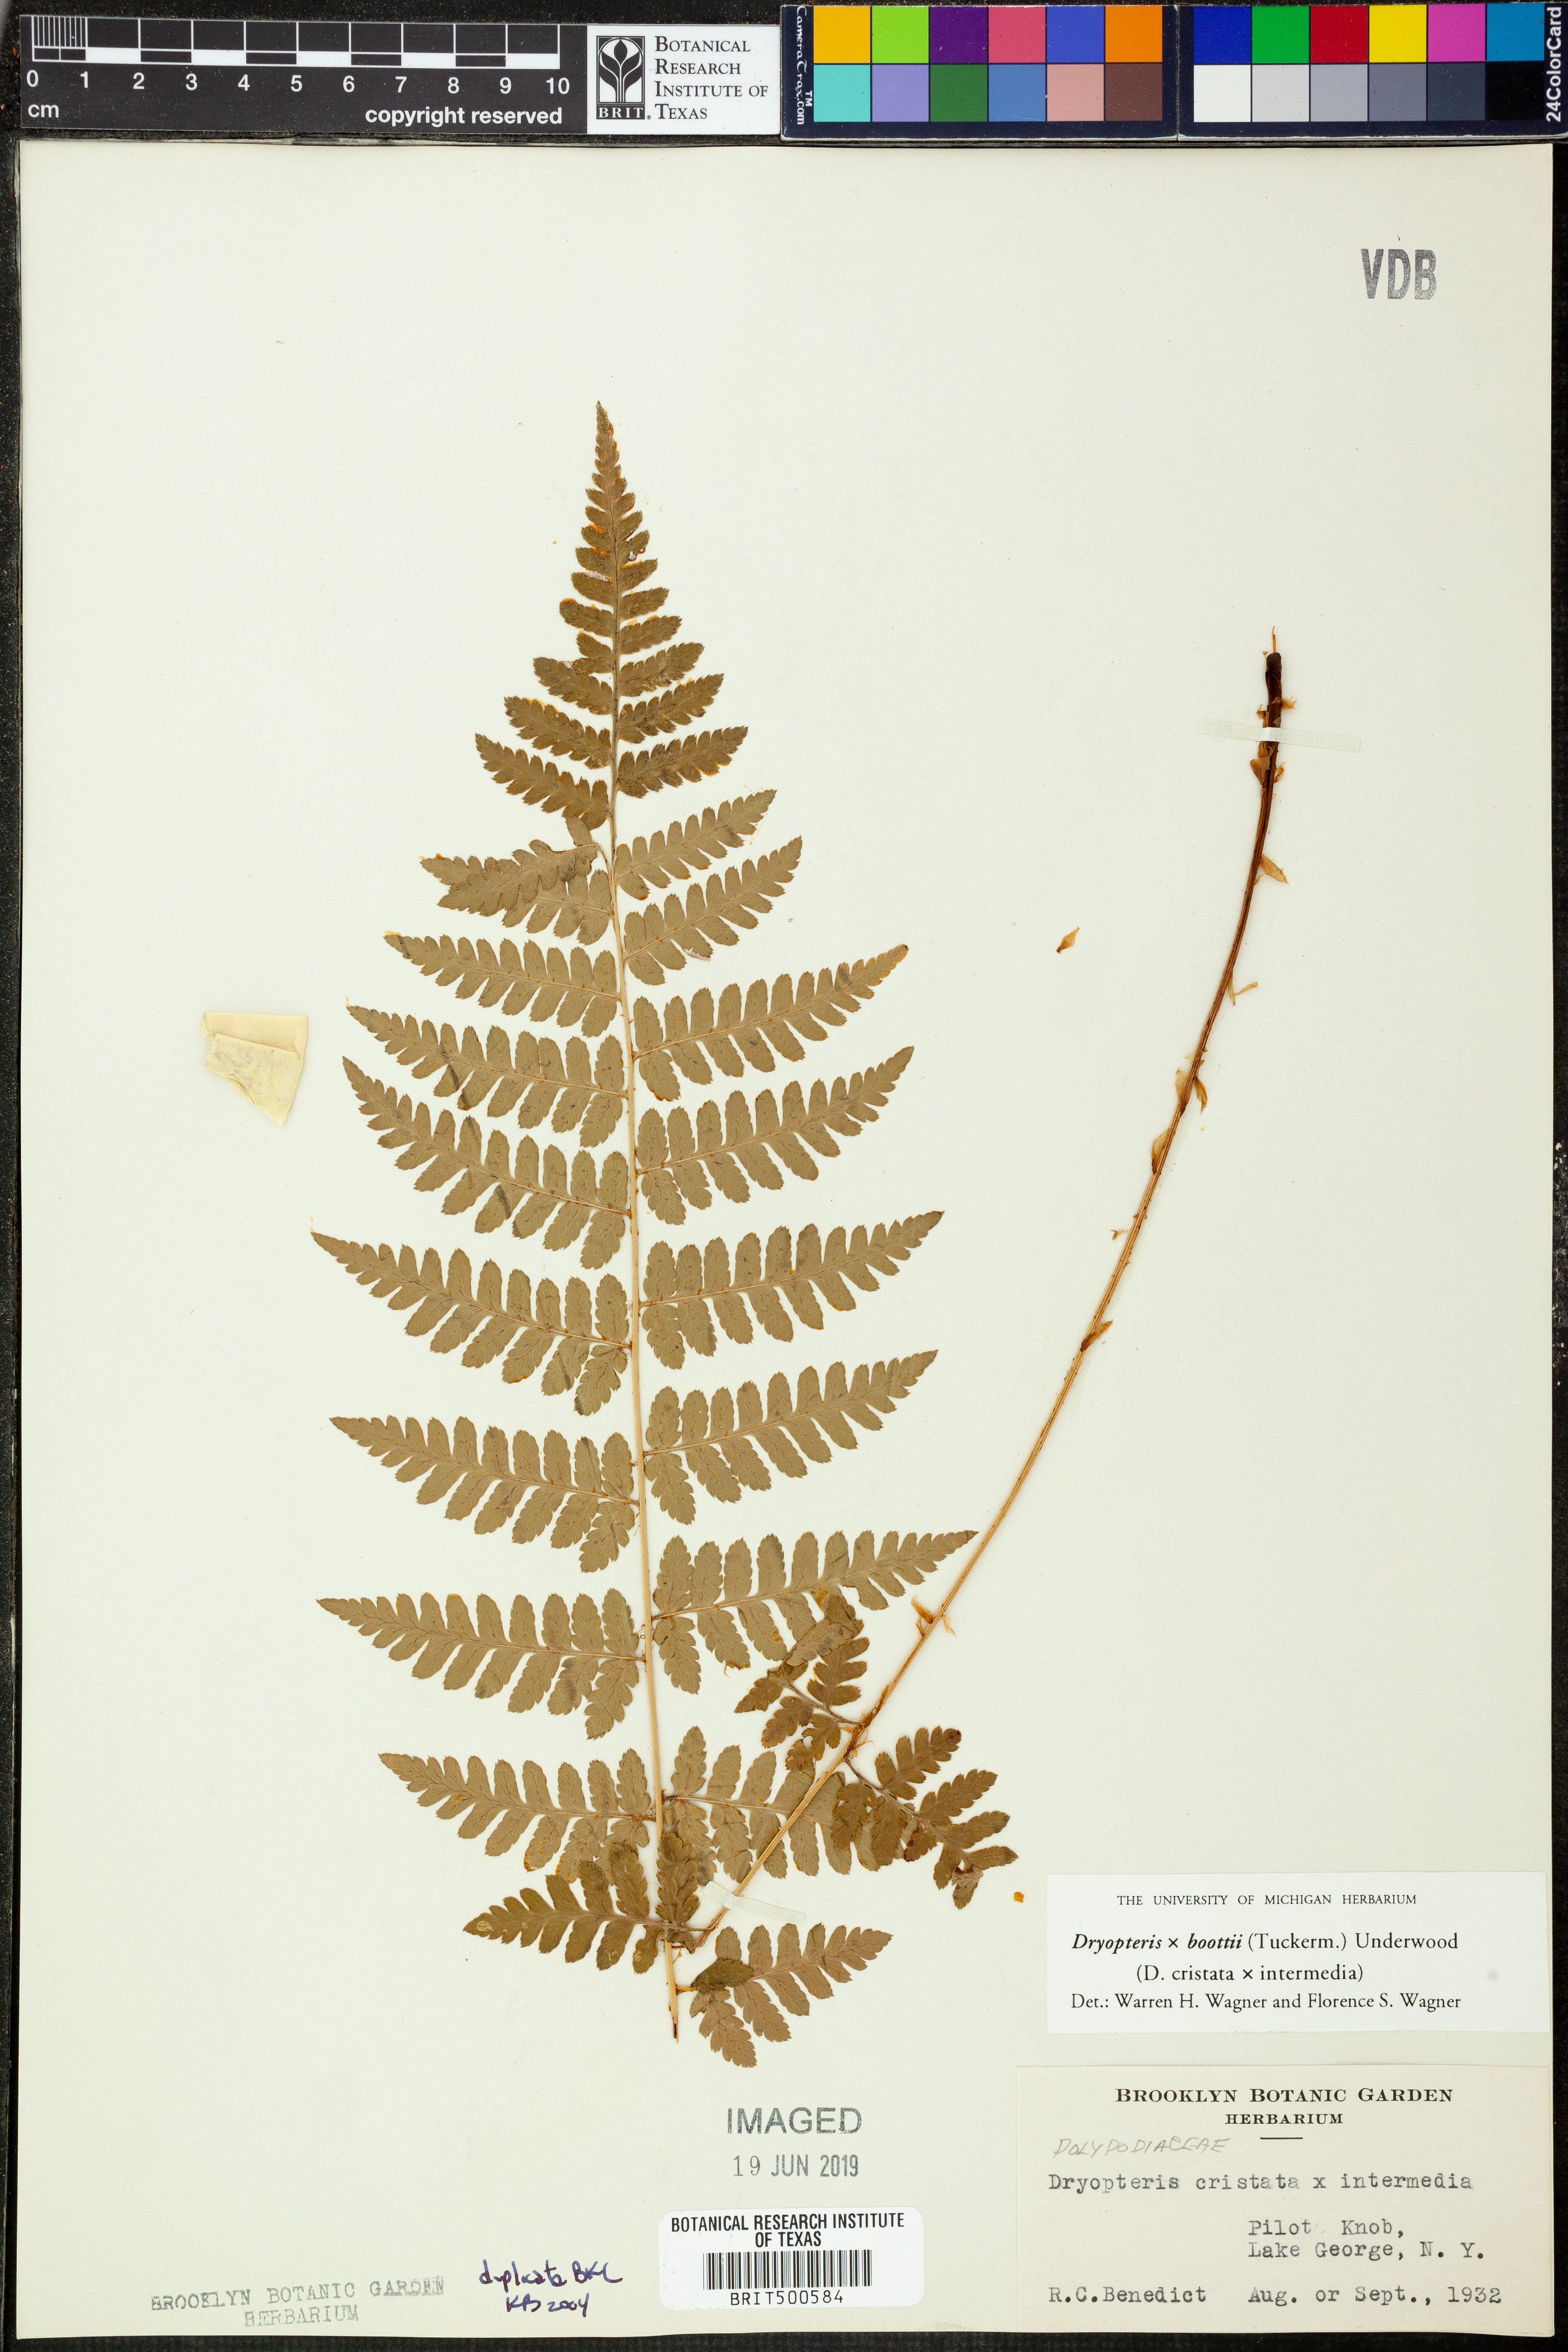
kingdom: Plantae
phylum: Tracheophyta
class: Polypodiopsida
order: Polypodiales
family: Dryopteridaceae
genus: Dryopteris
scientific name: Dryopteris
